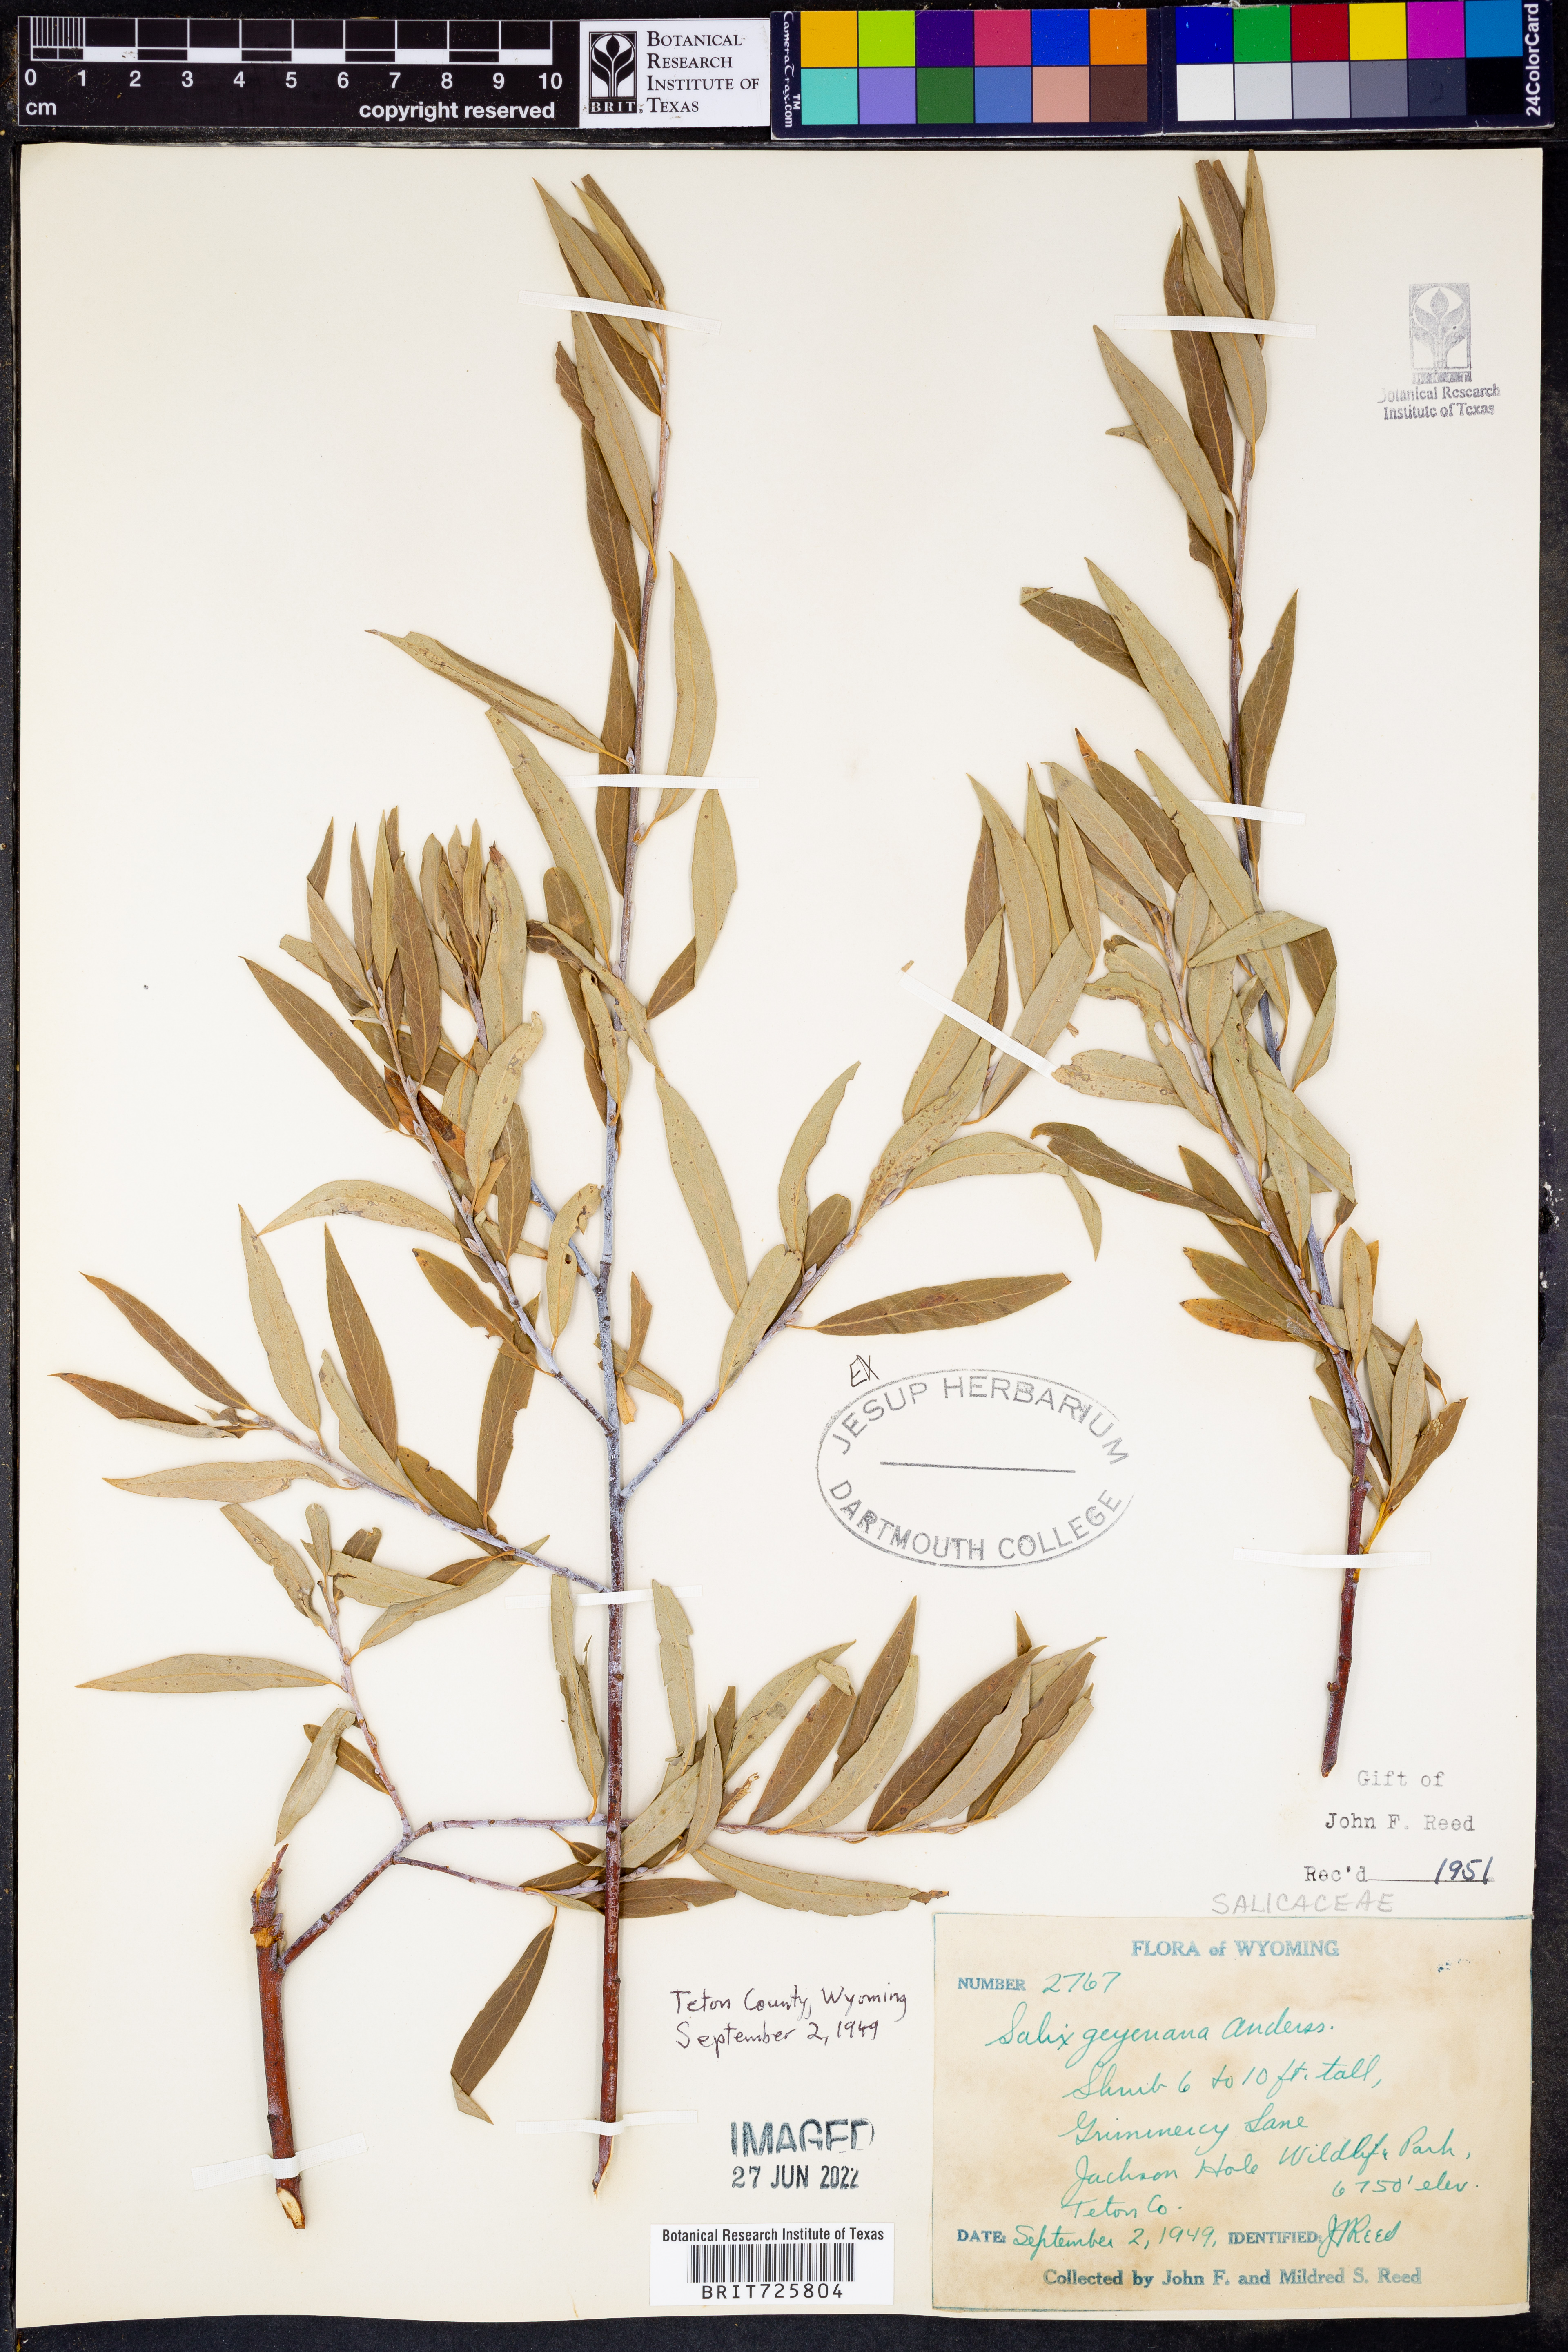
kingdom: Plantae
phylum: Tracheophyta
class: Magnoliopsida
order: Malpighiales
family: Salicaceae
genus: Salix
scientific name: Salix geyeriana
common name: Geyer's willow
